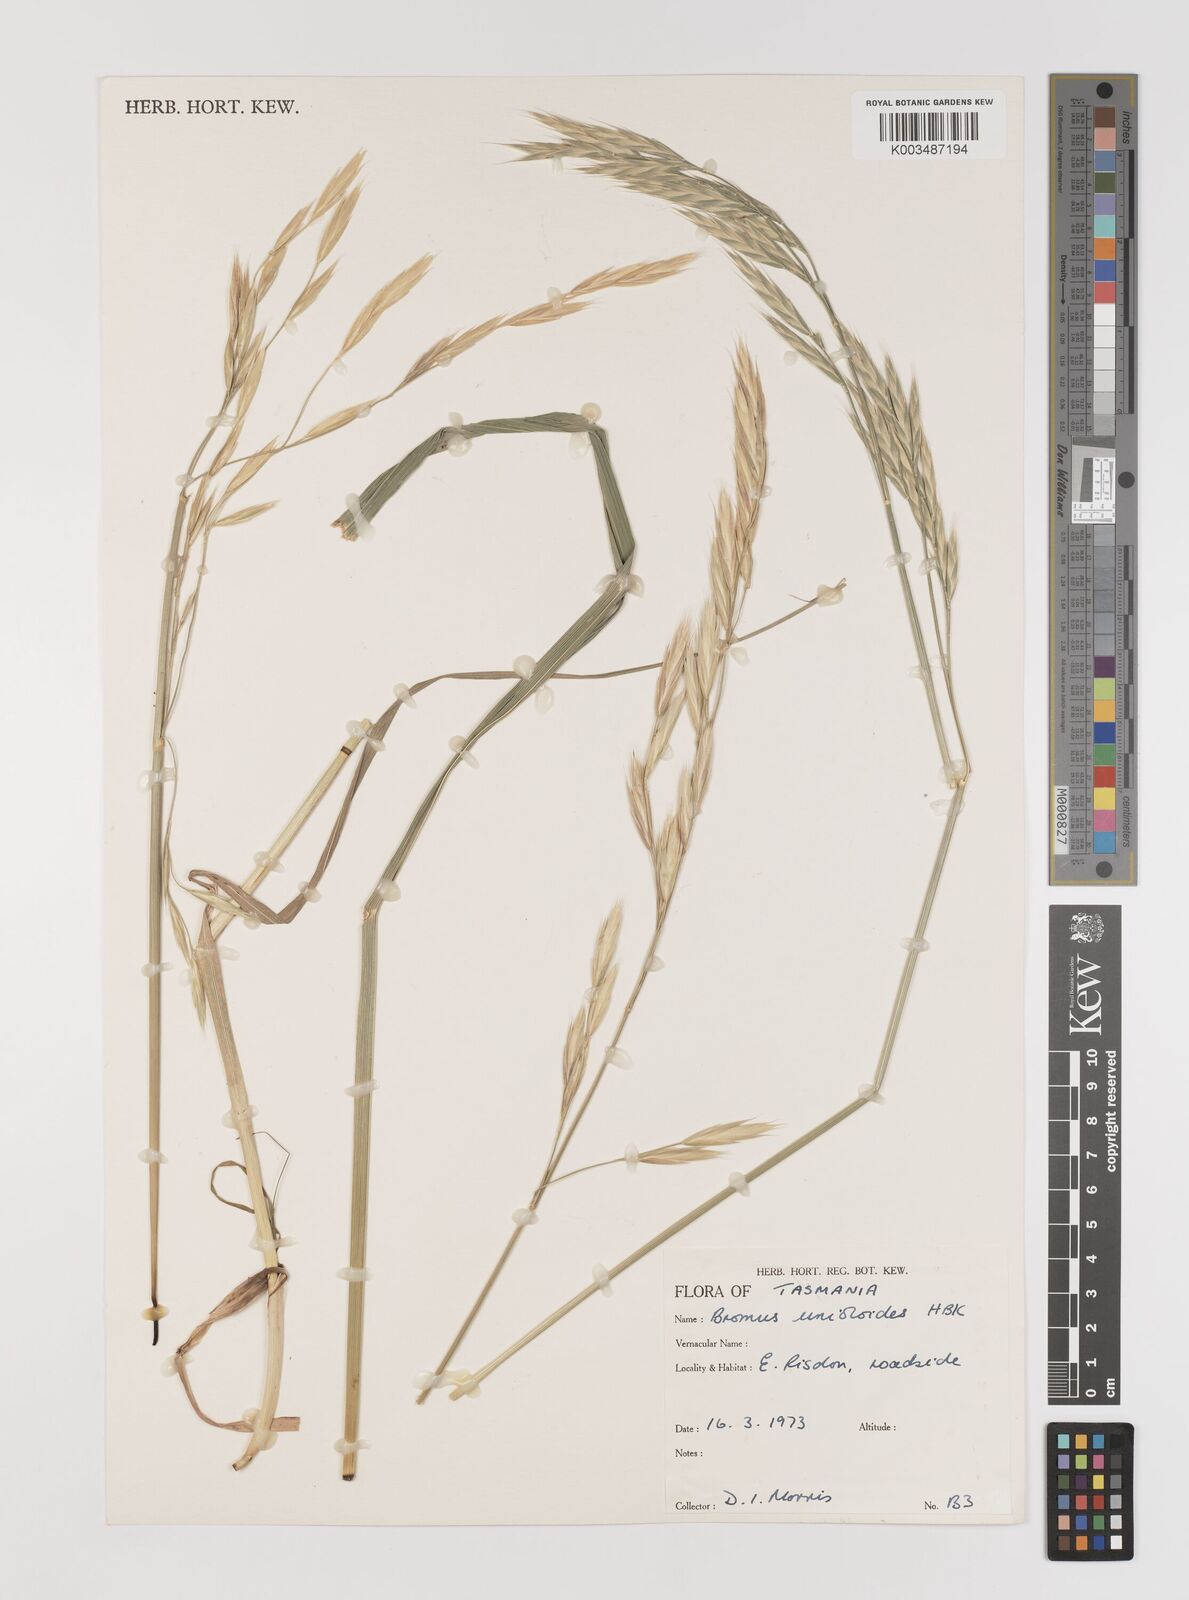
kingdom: Plantae
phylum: Tracheophyta
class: Liliopsida
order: Poales
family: Poaceae
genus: Bromus
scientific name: Bromus catharticus
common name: Rescuegrass
